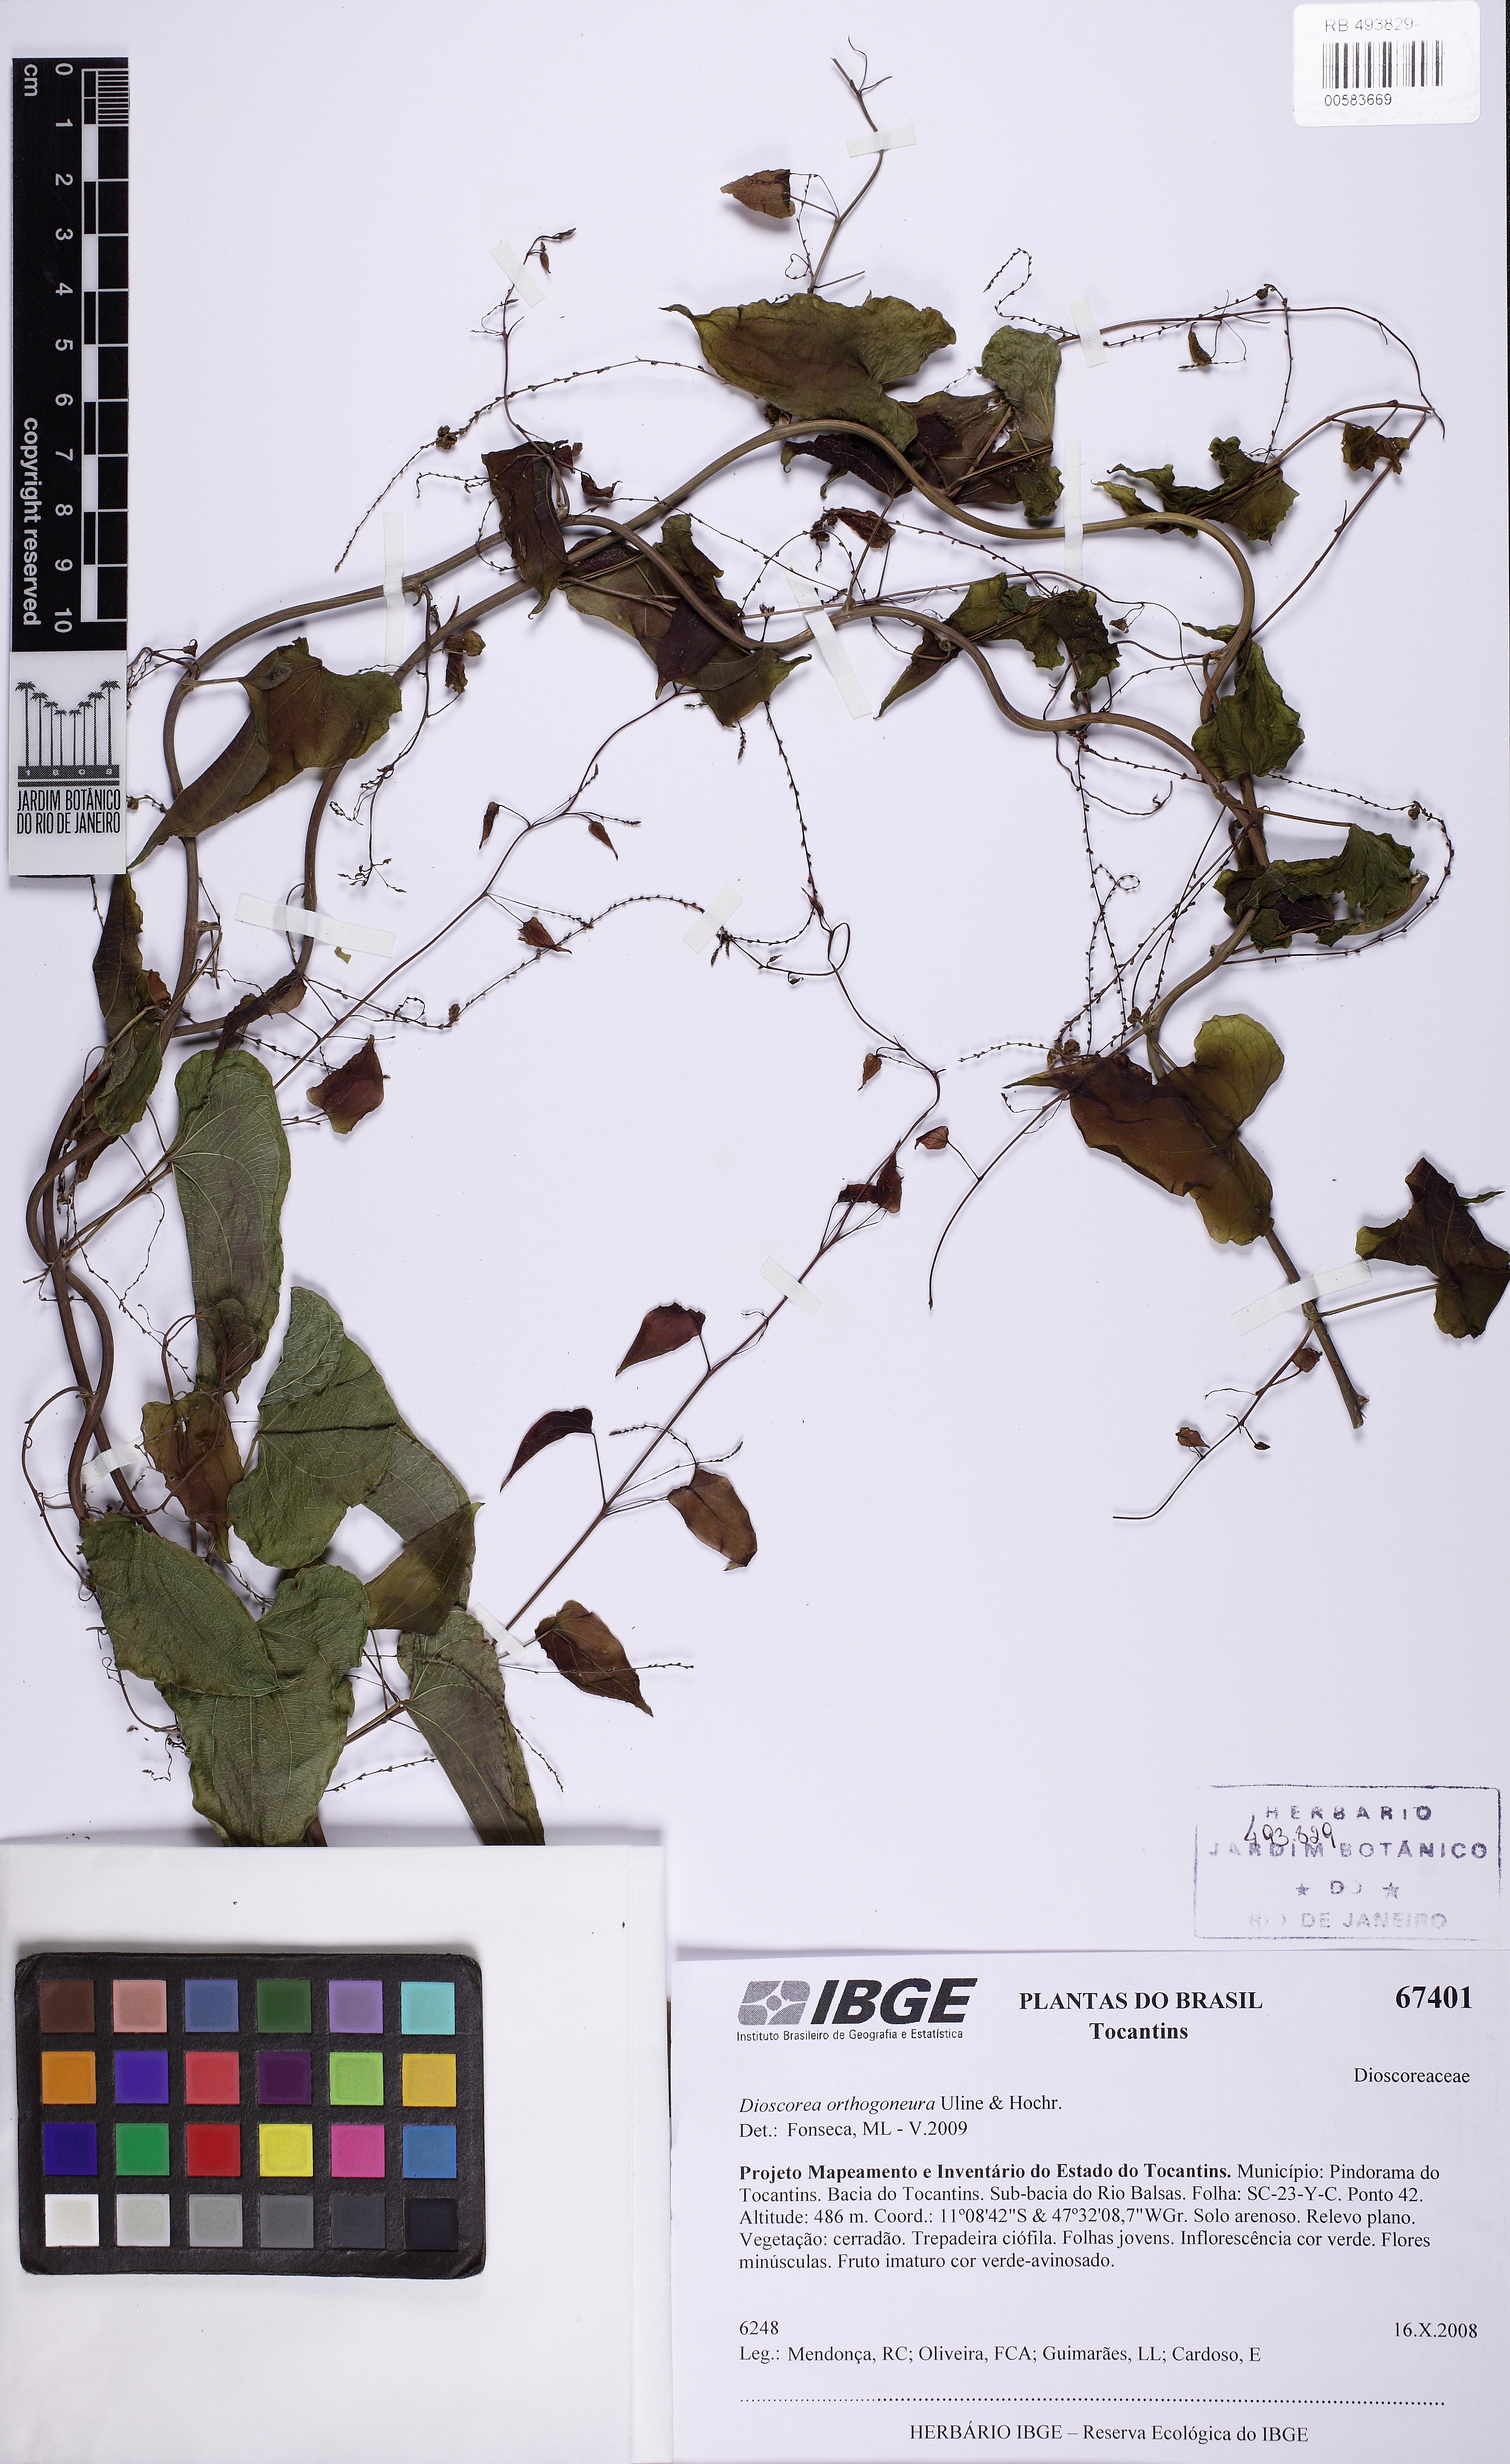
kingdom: Plantae
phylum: Tracheophyta
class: Liliopsida
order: Dioscoreales
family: Dioscoreaceae
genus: Dioscorea
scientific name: Dioscorea orthogoneura
